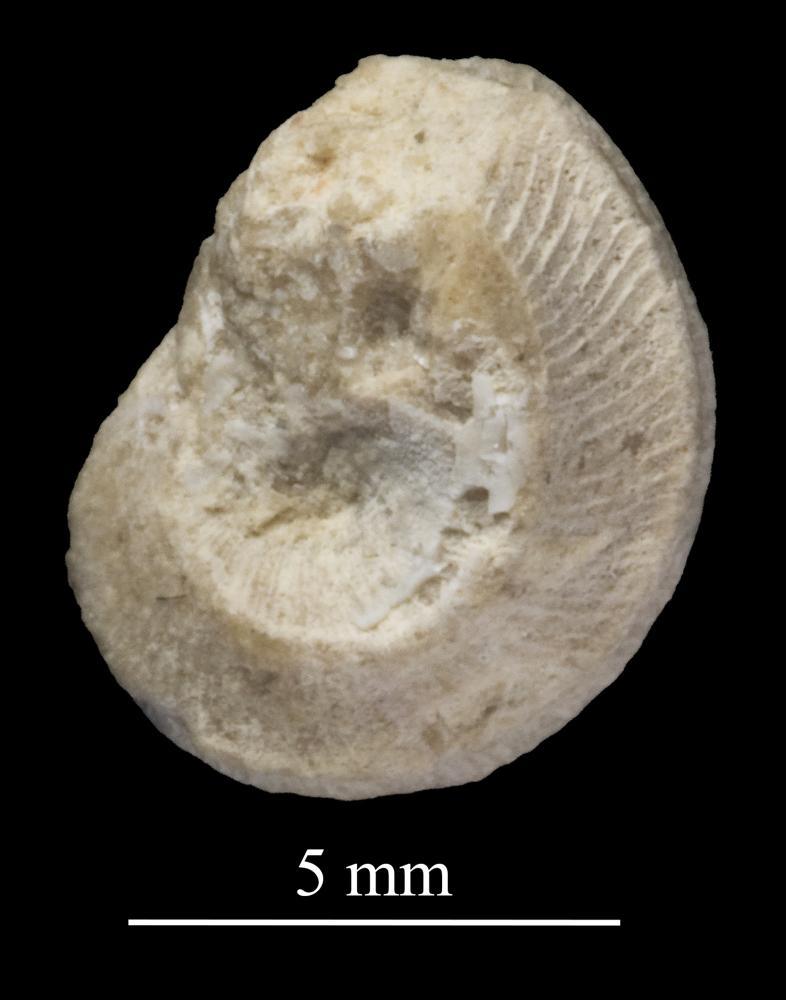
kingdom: Animalia
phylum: Mollusca
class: Gastropoda
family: Trochonematidae
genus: Trochonema
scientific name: Trochonema panderi
